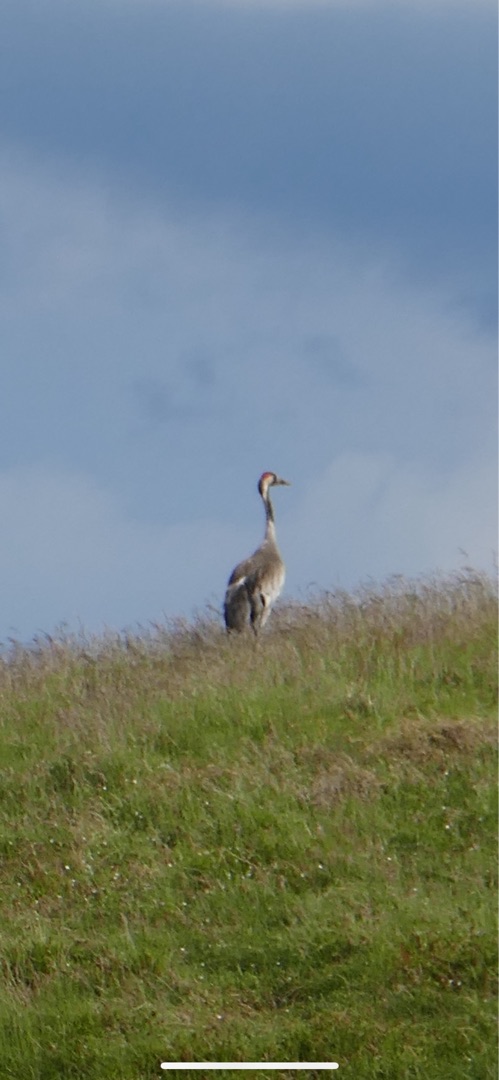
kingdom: Animalia
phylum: Chordata
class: Aves
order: Gruiformes
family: Gruidae
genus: Grus
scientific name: Grus grus
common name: Trane
